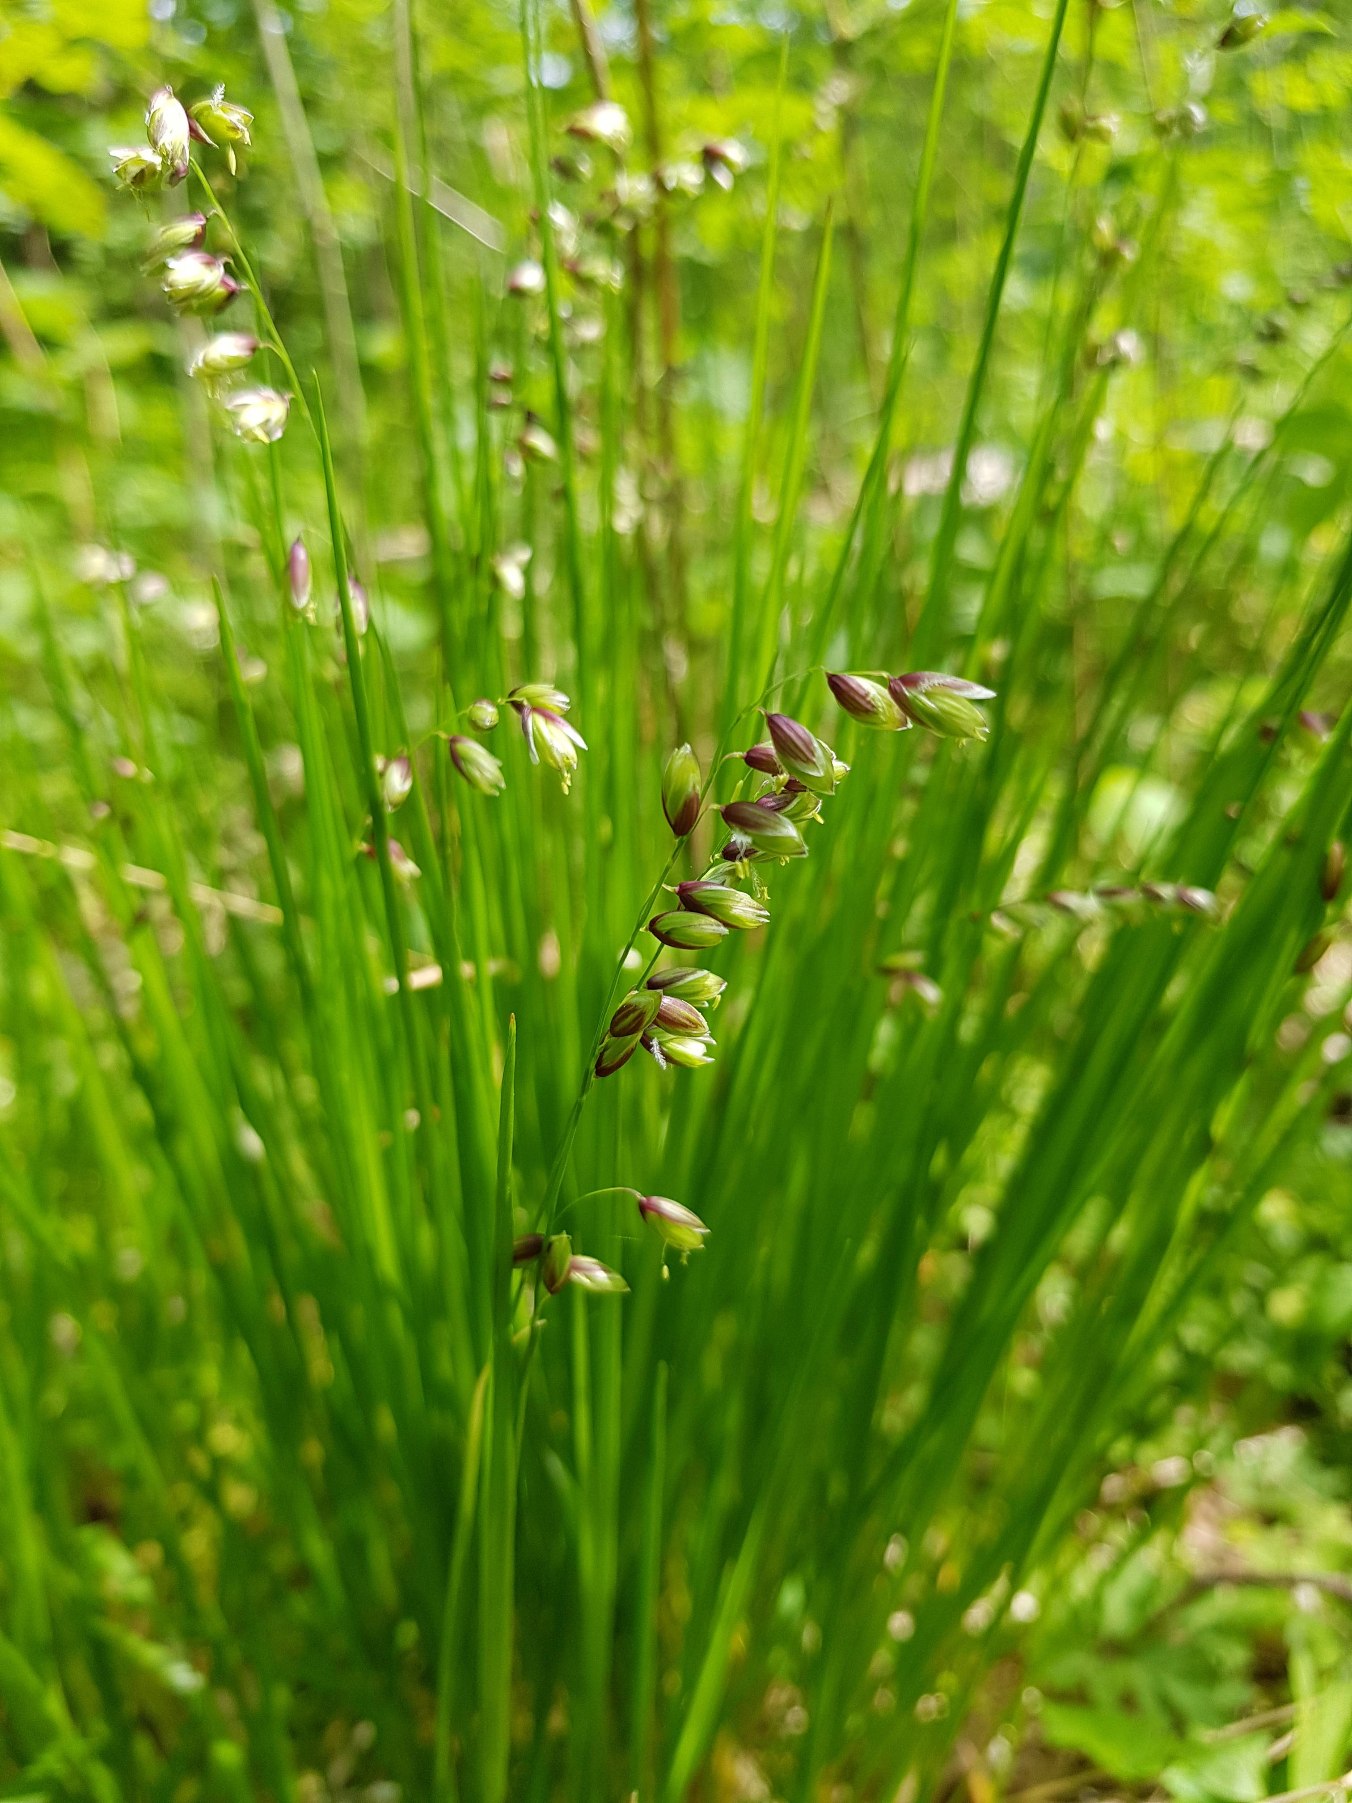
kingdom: Plantae
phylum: Tracheophyta
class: Liliopsida
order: Poales
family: Poaceae
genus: Melica
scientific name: Melica nutans
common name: Nikkende flitteraks
